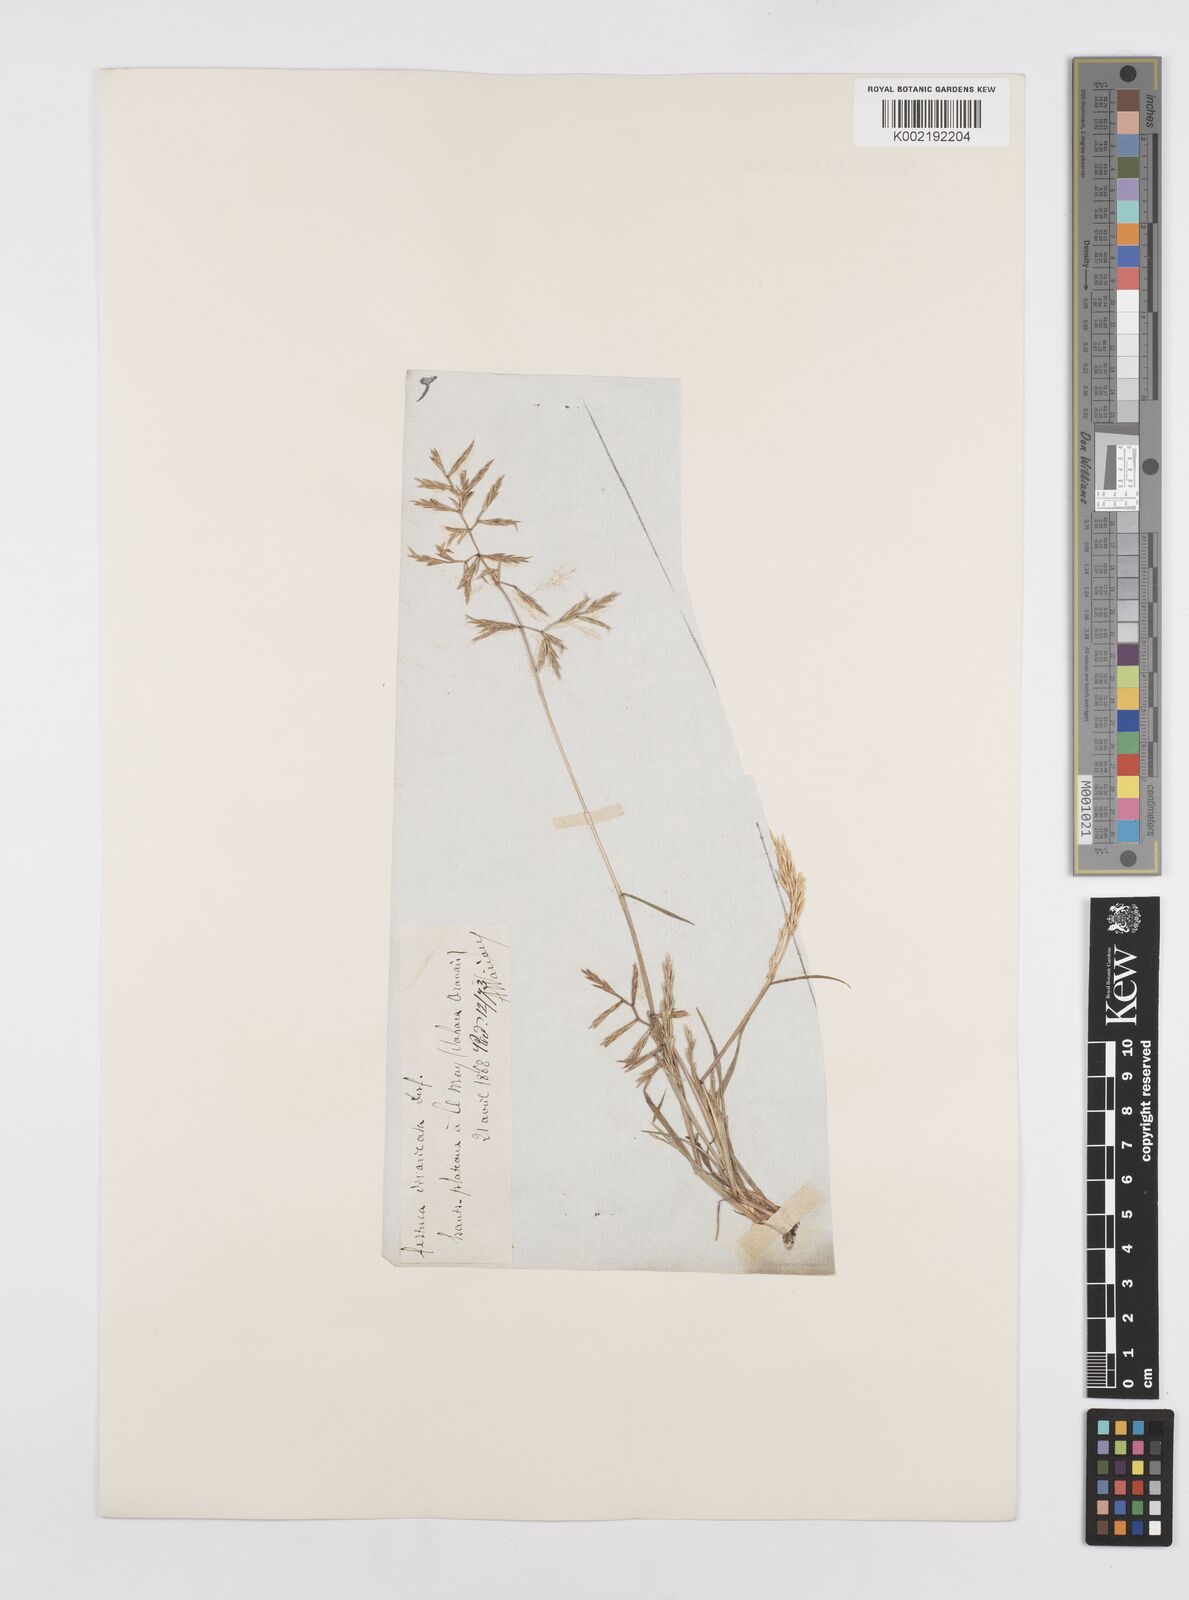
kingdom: Plantae
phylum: Tracheophyta
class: Liliopsida
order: Poales
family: Poaceae
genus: Cutandia
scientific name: Cutandia divaricata
